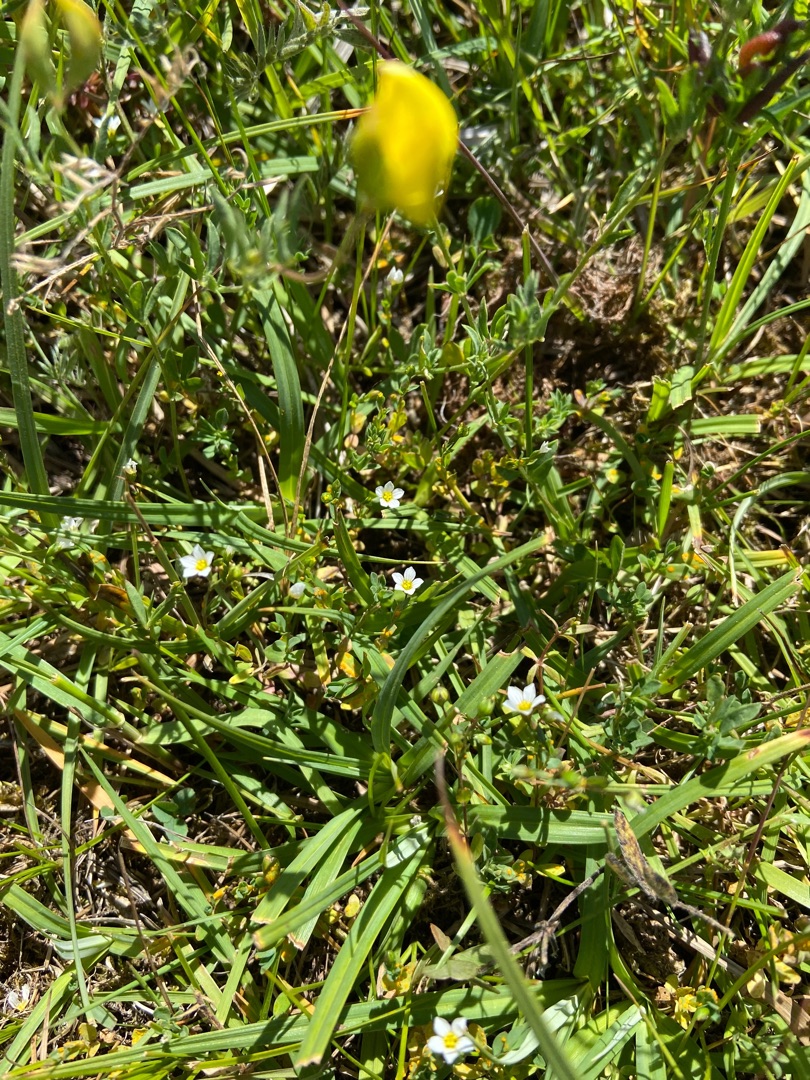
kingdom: Plantae
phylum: Tracheophyta
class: Magnoliopsida
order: Malpighiales
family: Linaceae
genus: Linum
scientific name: Linum catharticum
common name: Vild hør
